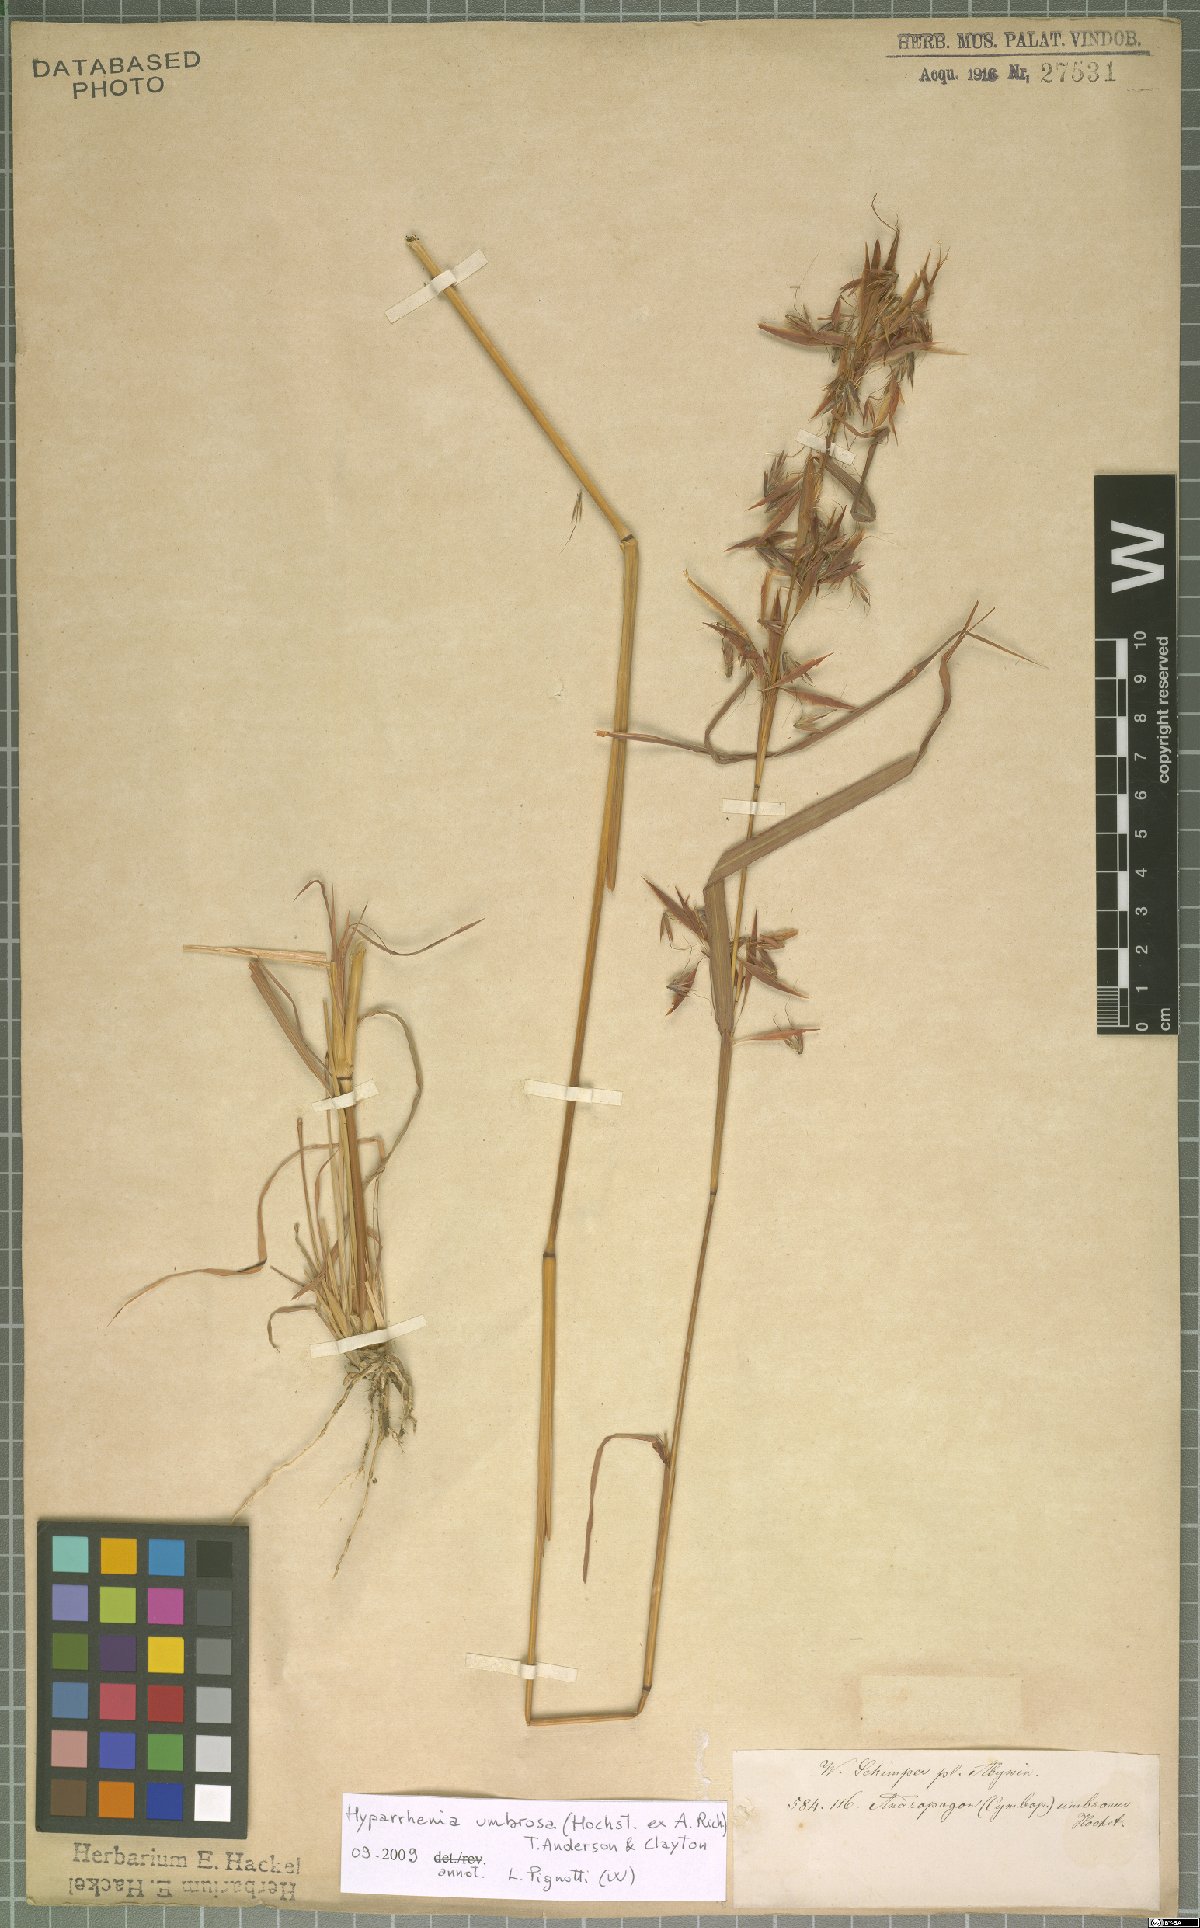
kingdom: Plantae
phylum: Tracheophyta
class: Liliopsida
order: Poales
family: Poaceae
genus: Hyparrhenia
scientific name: Hyparrhenia umbrosa
